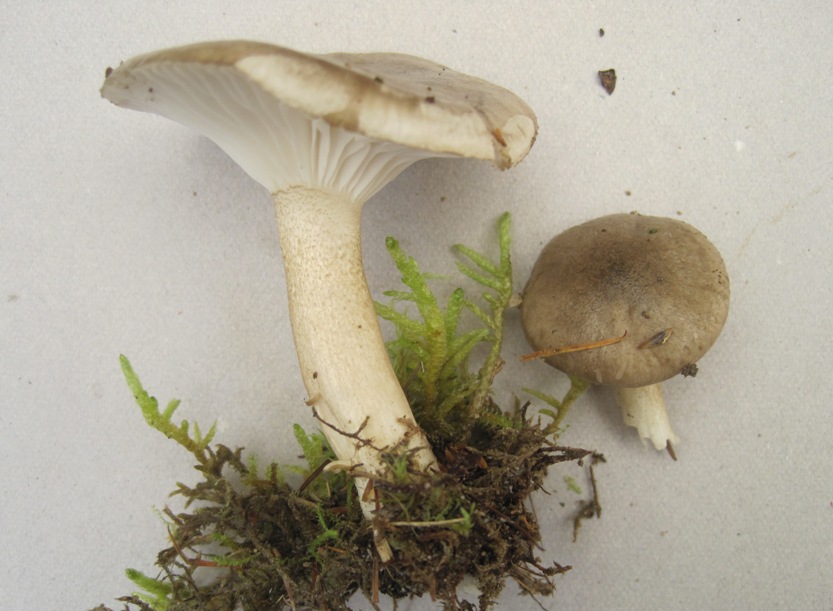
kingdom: Fungi
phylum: Basidiomycota
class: Agaricomycetes
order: Agaricales
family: Hygrophoraceae
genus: Hygrophorus
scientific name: Hygrophorus agathosmus
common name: vellugtende sneglehat
